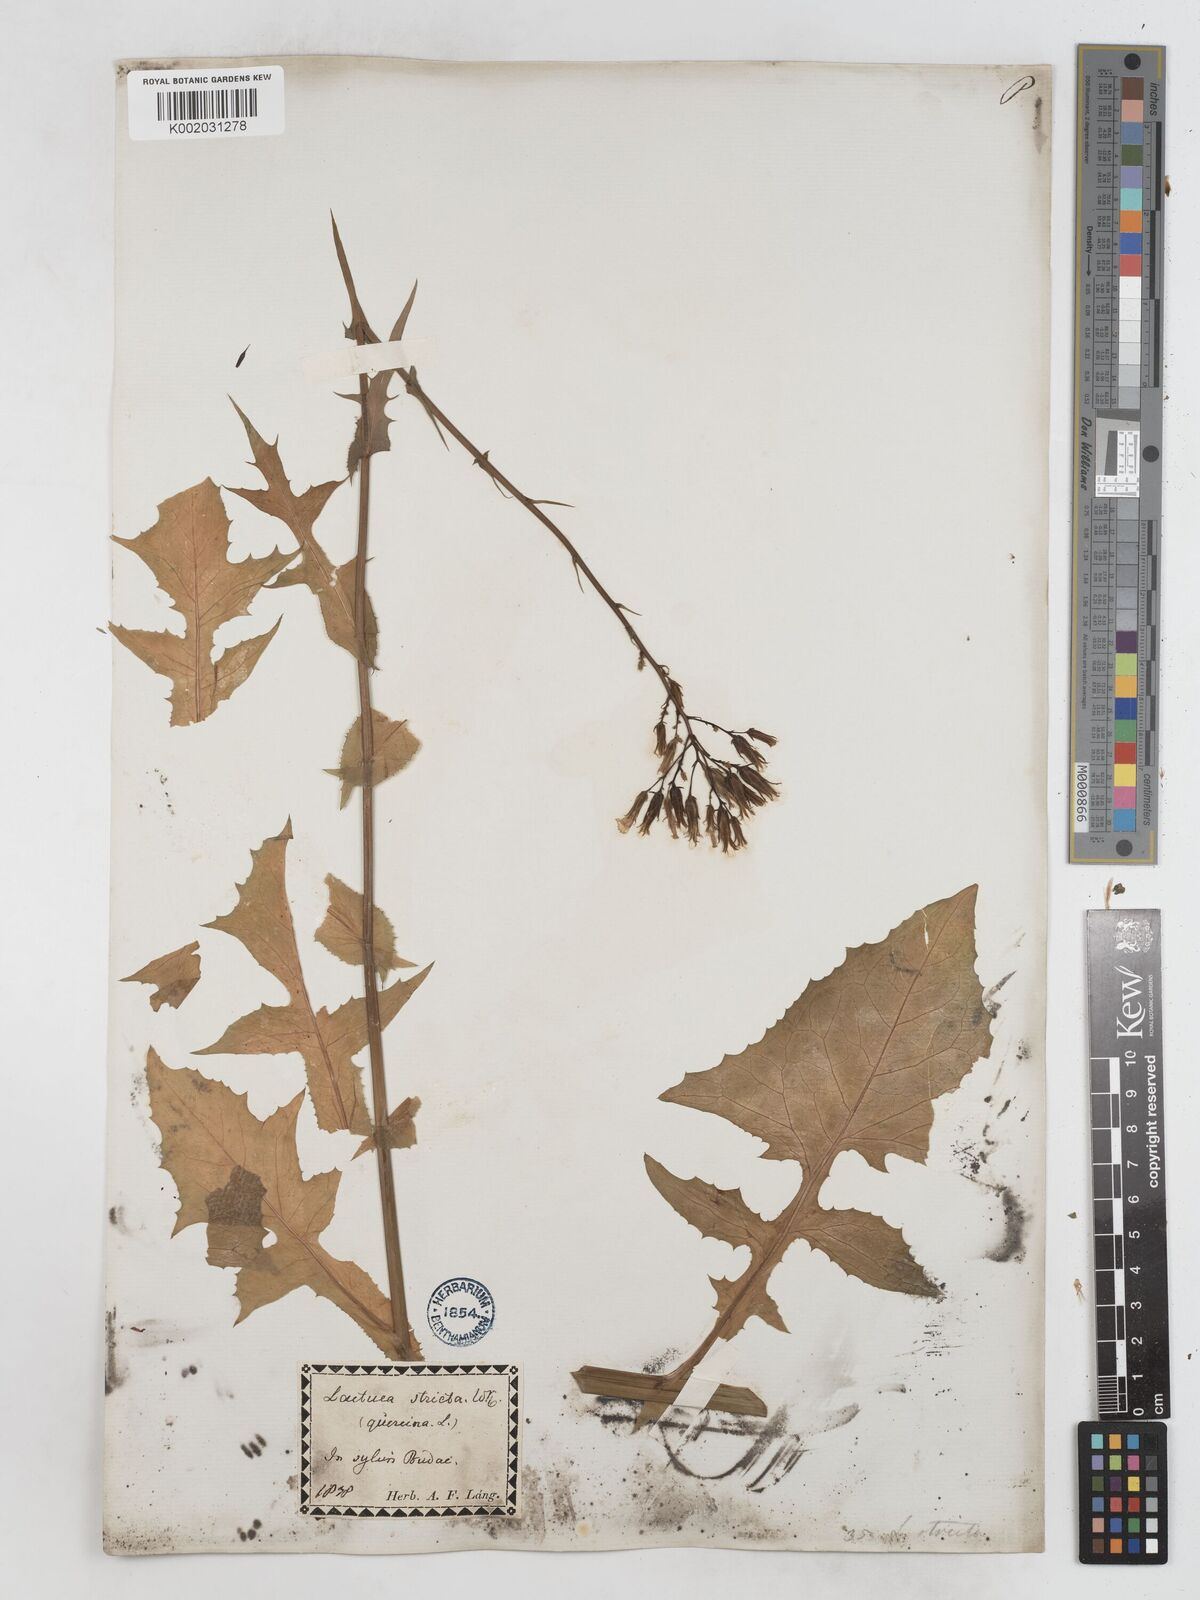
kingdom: Plantae
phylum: Tracheophyta
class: Magnoliopsida
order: Asterales
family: Asteraceae
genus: Lactuca
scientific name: Lactuca quercina
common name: Wild lettuce
